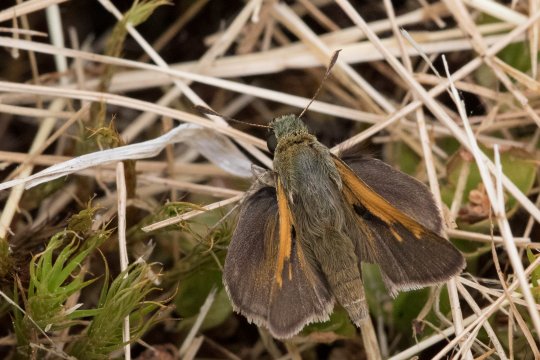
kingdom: Animalia
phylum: Arthropoda
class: Insecta
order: Lepidoptera
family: Hesperiidae
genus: Polites
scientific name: Polites themistocles
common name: Tawny-edged Skipper
